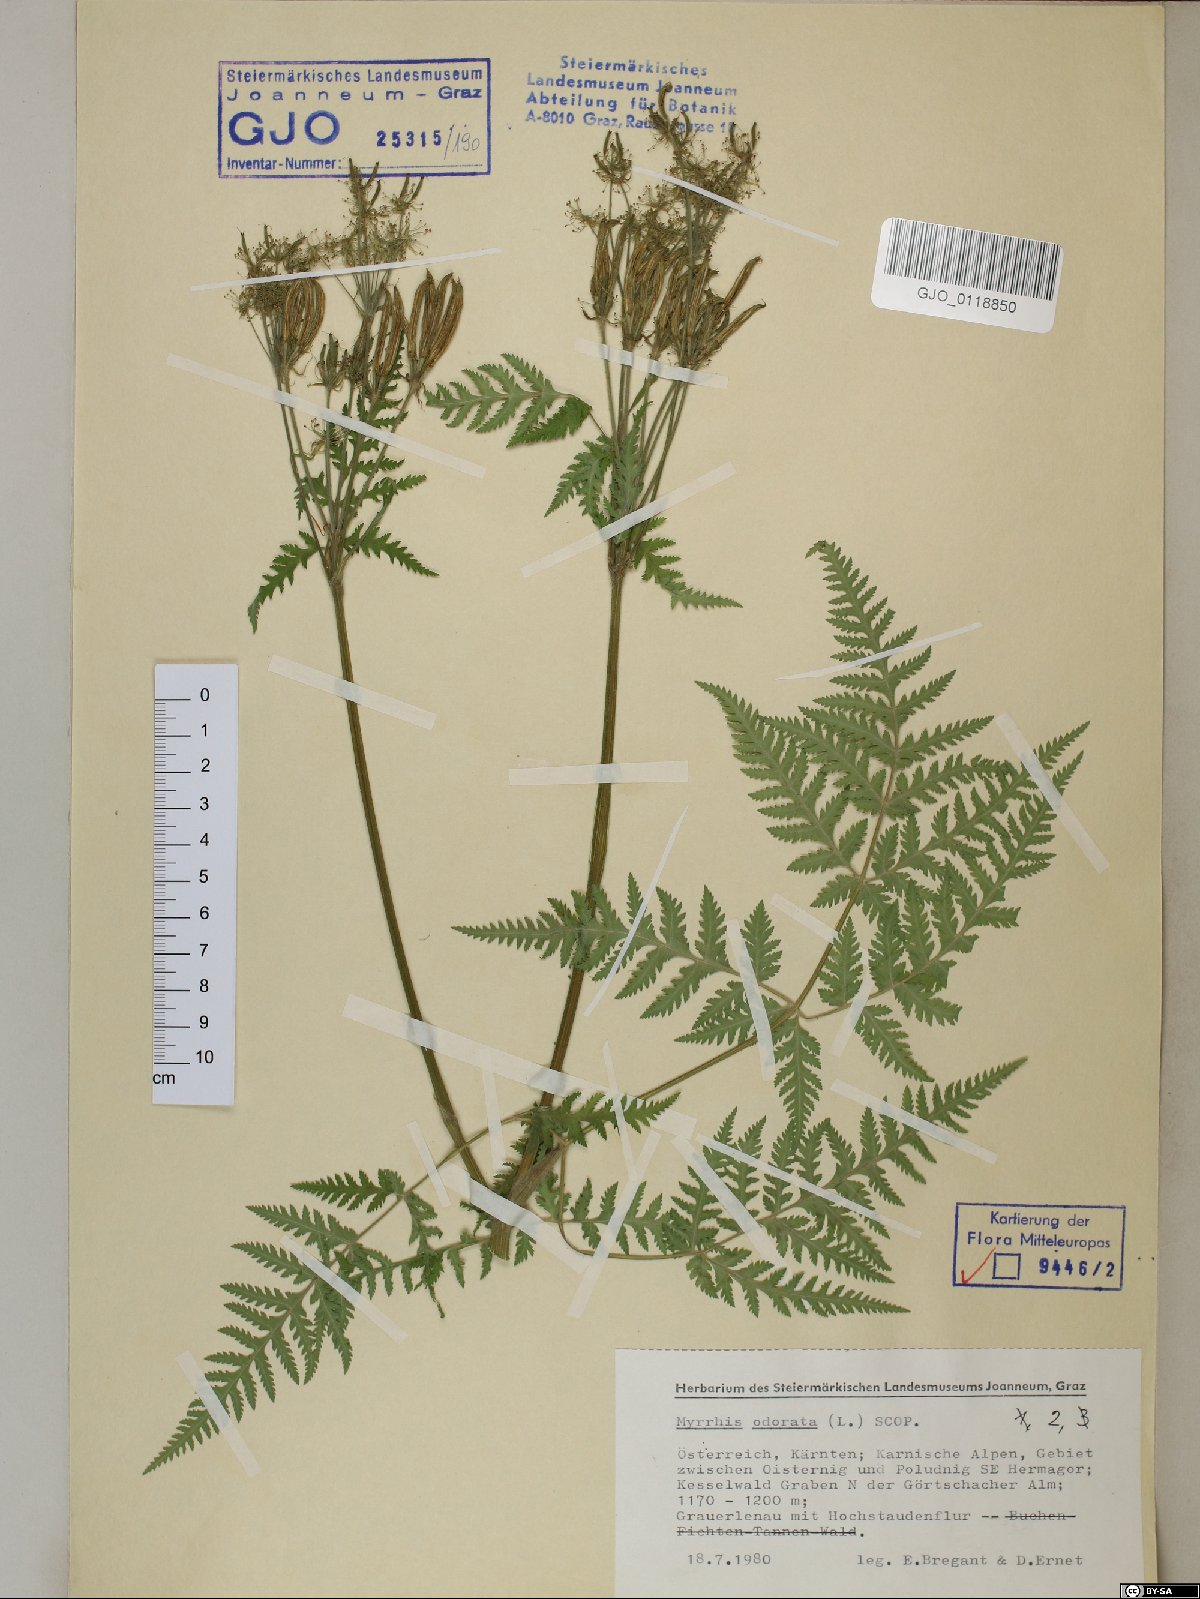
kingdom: Plantae
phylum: Tracheophyta
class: Magnoliopsida
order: Apiales
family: Apiaceae
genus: Myrrhis
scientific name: Myrrhis odorata
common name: Sweet cicely
